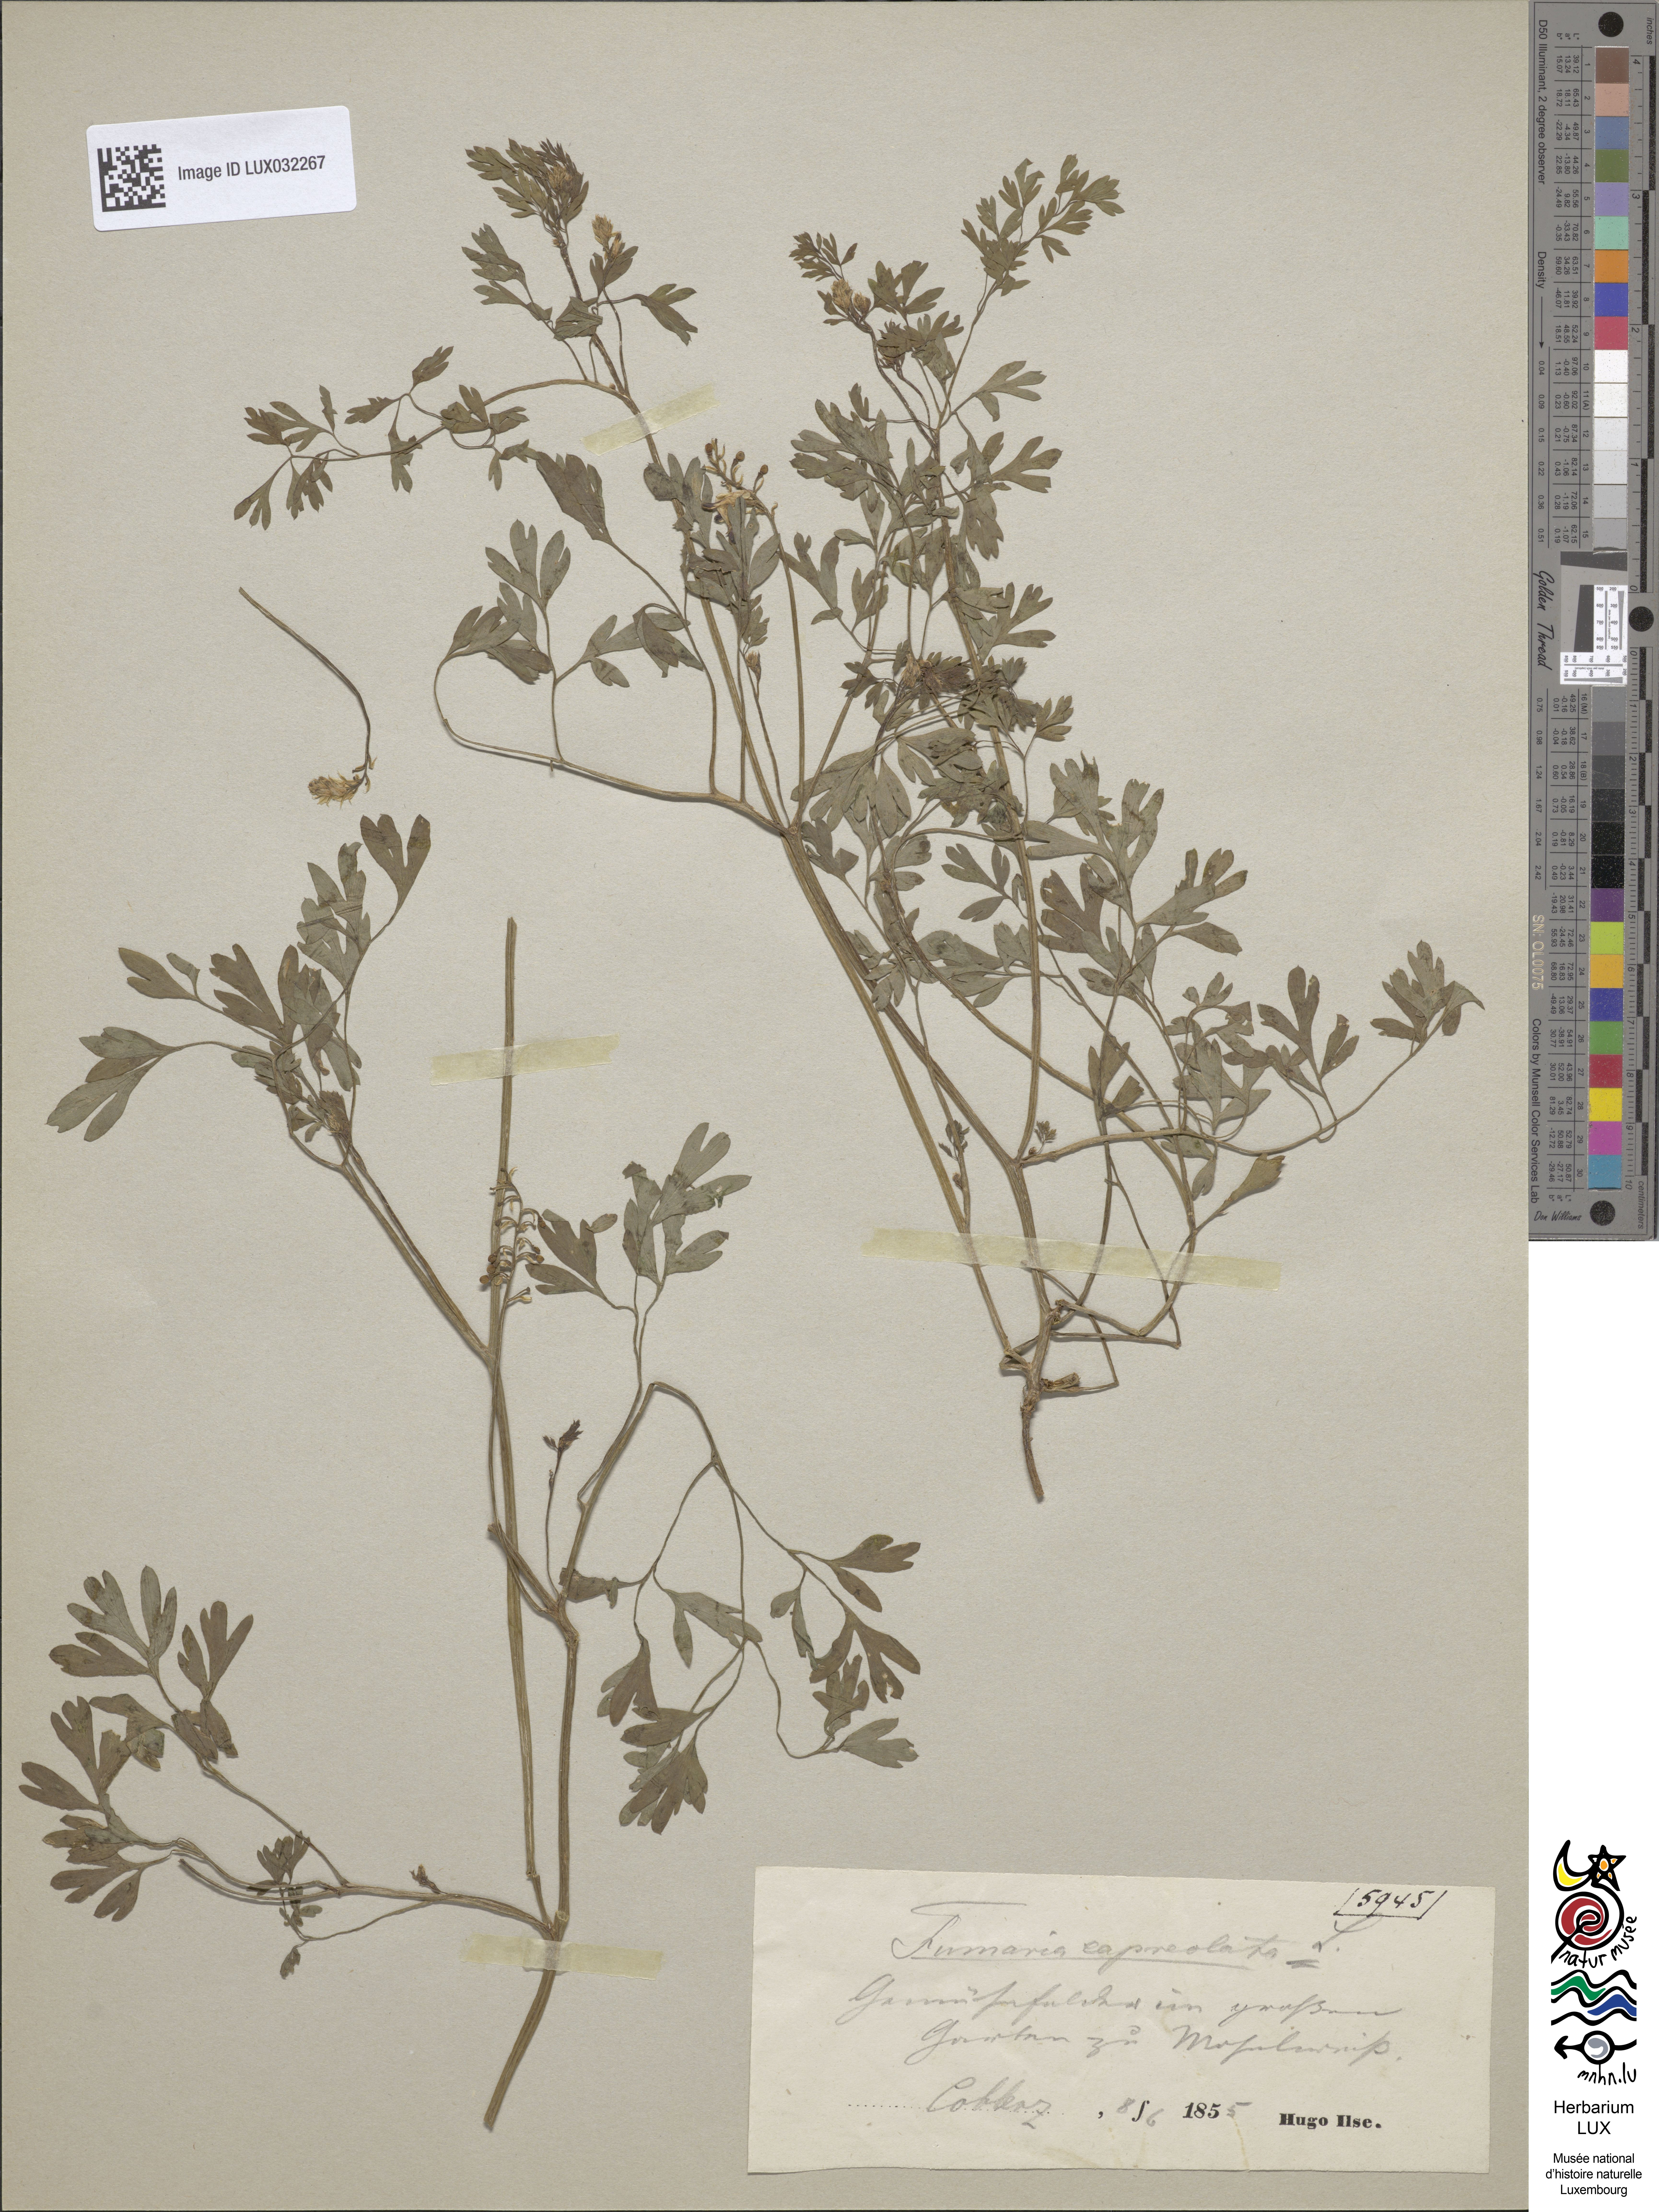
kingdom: Plantae
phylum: Tracheophyta
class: Magnoliopsida
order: Ranunculales
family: Papaveraceae
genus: Fumaria
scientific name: Fumaria capreolata
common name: White ramping-fumitory
